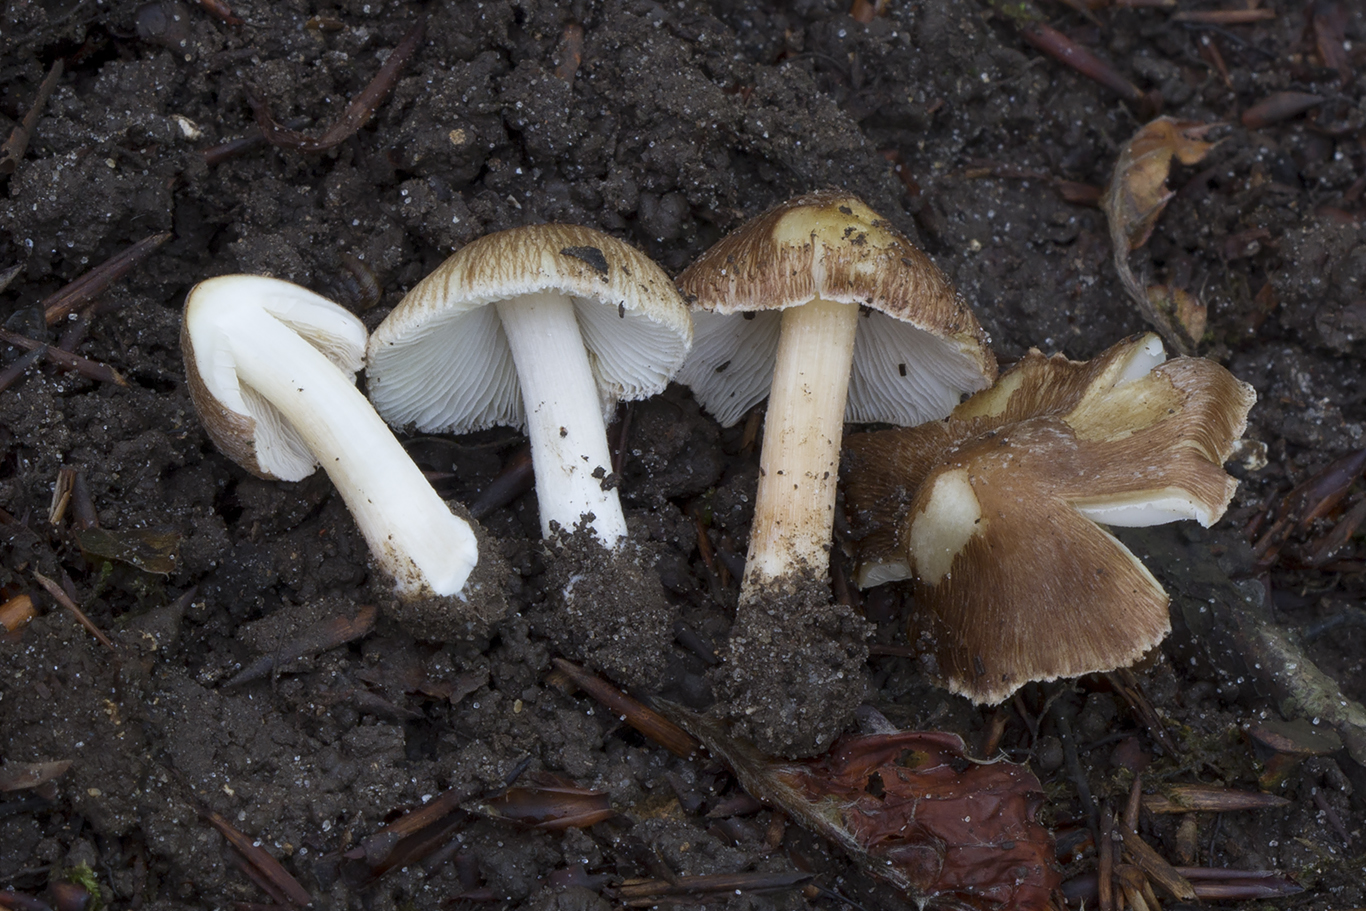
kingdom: Fungi
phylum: Basidiomycota
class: Agaricomycetes
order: Agaricales
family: Inocybaceae
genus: Inosperma
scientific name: Inosperma maculatum
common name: plettet trævlhat
